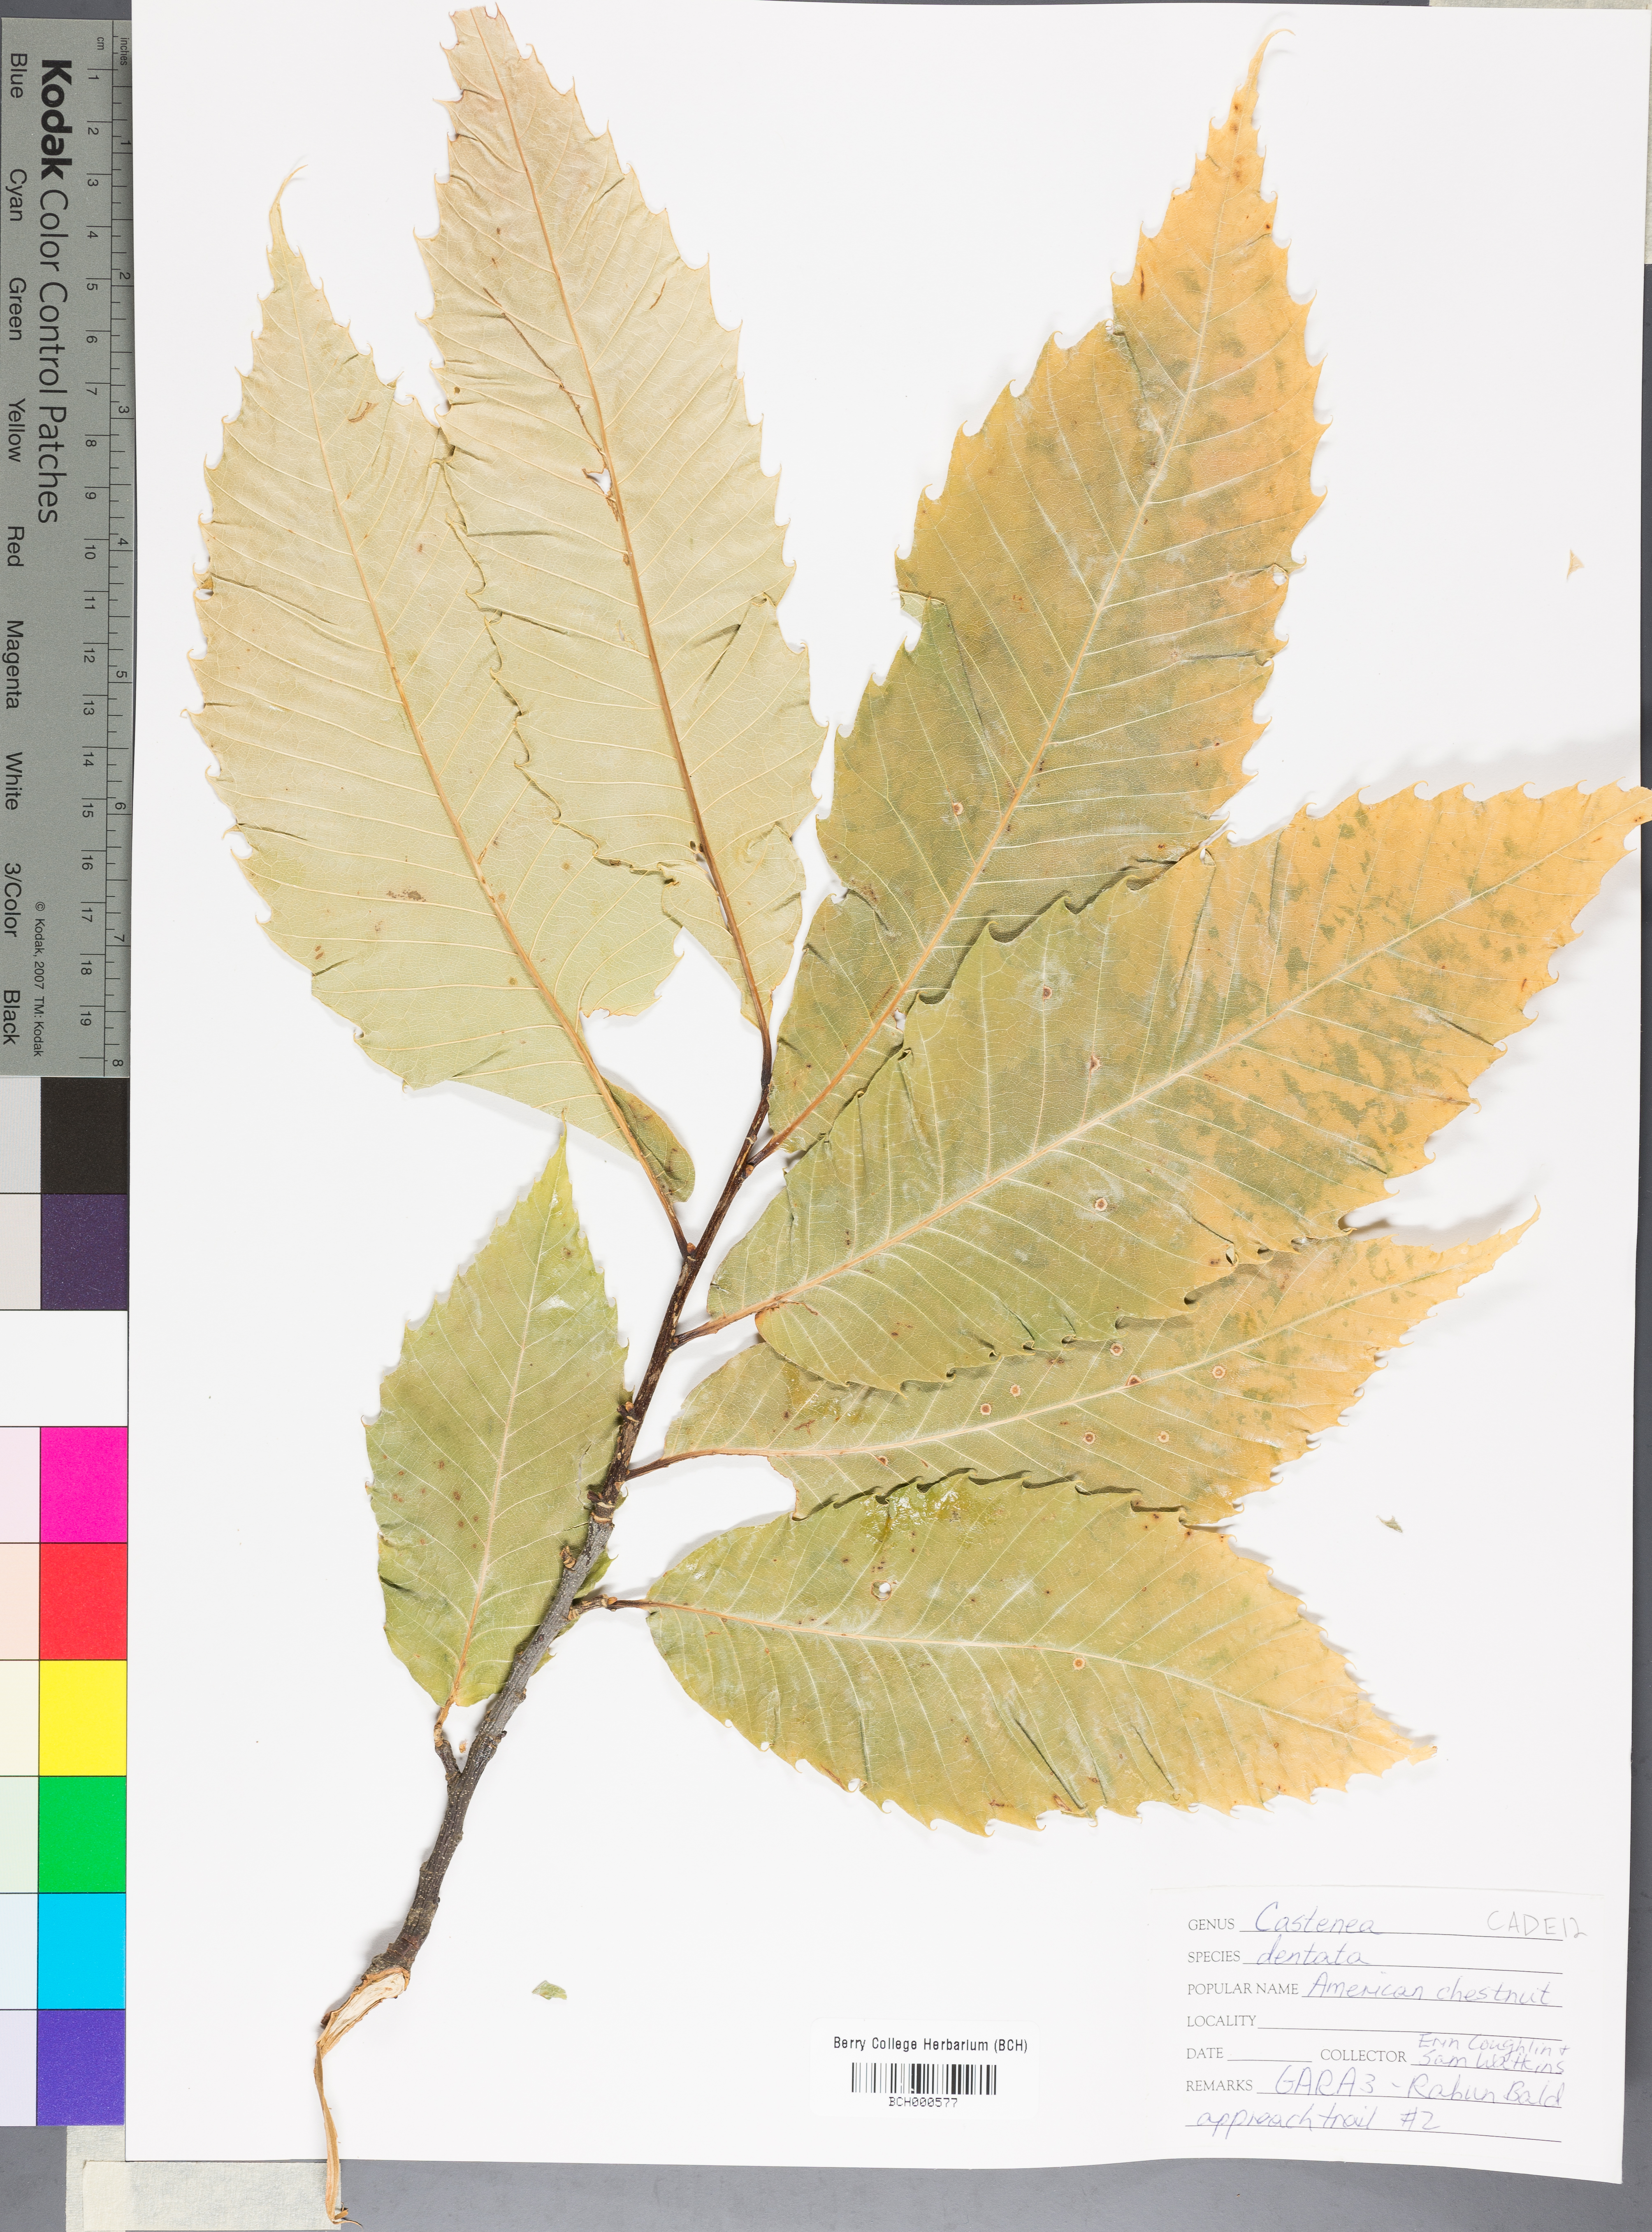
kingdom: Plantae
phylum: Tracheophyta
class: Magnoliopsida
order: Fagales
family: Fagaceae
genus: Castanea
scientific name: Castanea dentata
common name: American chestnut
